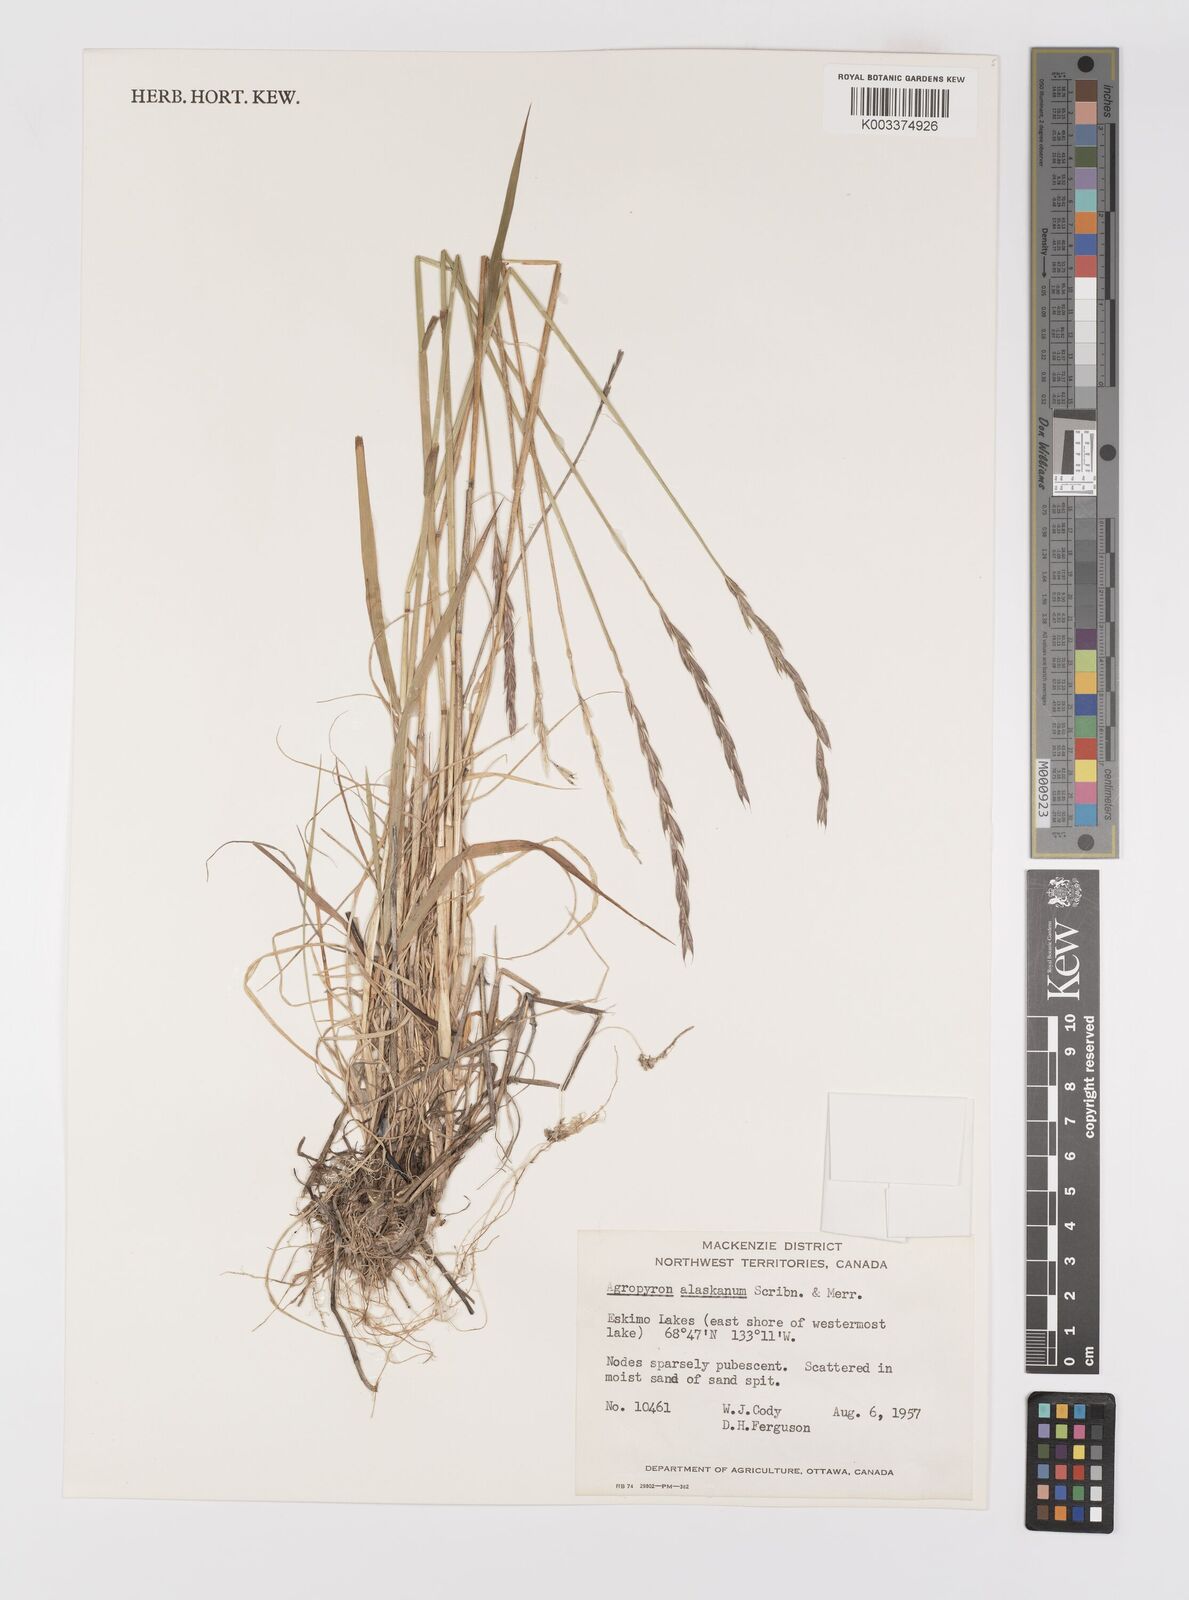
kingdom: Plantae
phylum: Tracheophyta
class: Liliopsida
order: Poales
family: Poaceae
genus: Elymus
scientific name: Elymus alaskanus
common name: Alaska wheatgrass
